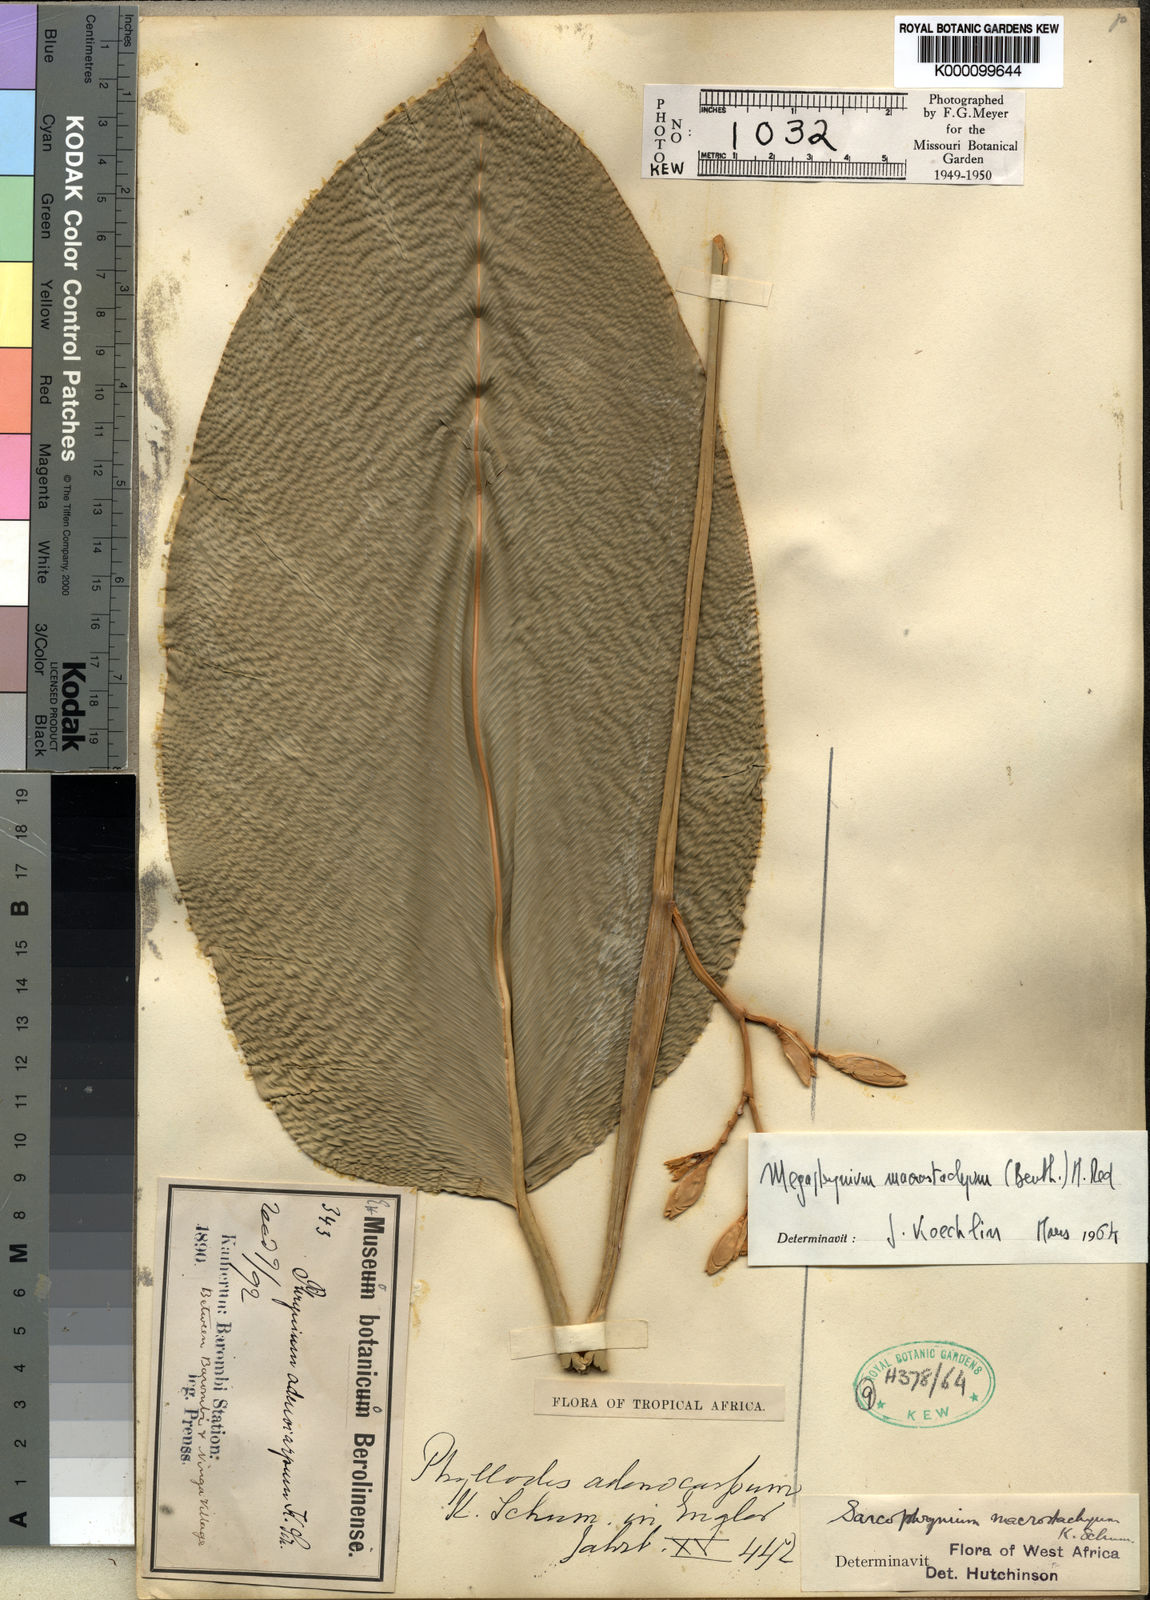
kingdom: Plantae
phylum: Tracheophyta
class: Liliopsida
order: Zingiberales
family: Marantaceae
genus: Megaphrynium
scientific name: Megaphrynium macrostachyum
